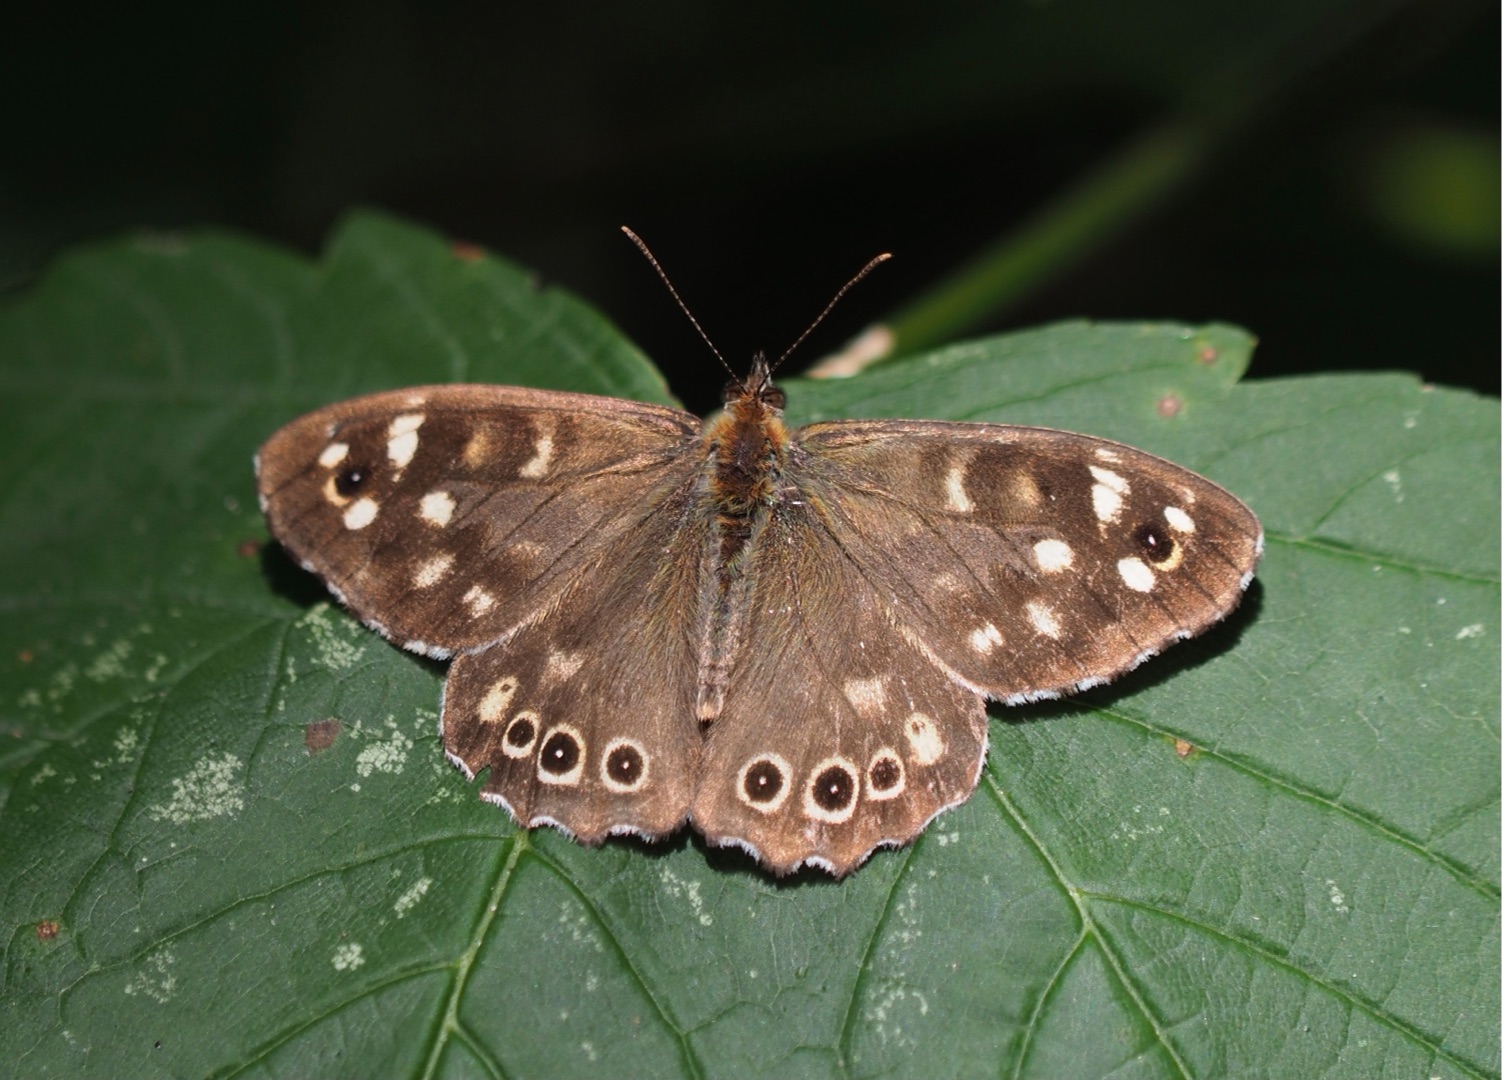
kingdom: Animalia
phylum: Arthropoda
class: Insecta
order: Lepidoptera
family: Nymphalidae
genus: Pararge
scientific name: Pararge aegeria
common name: Skovrandøje
